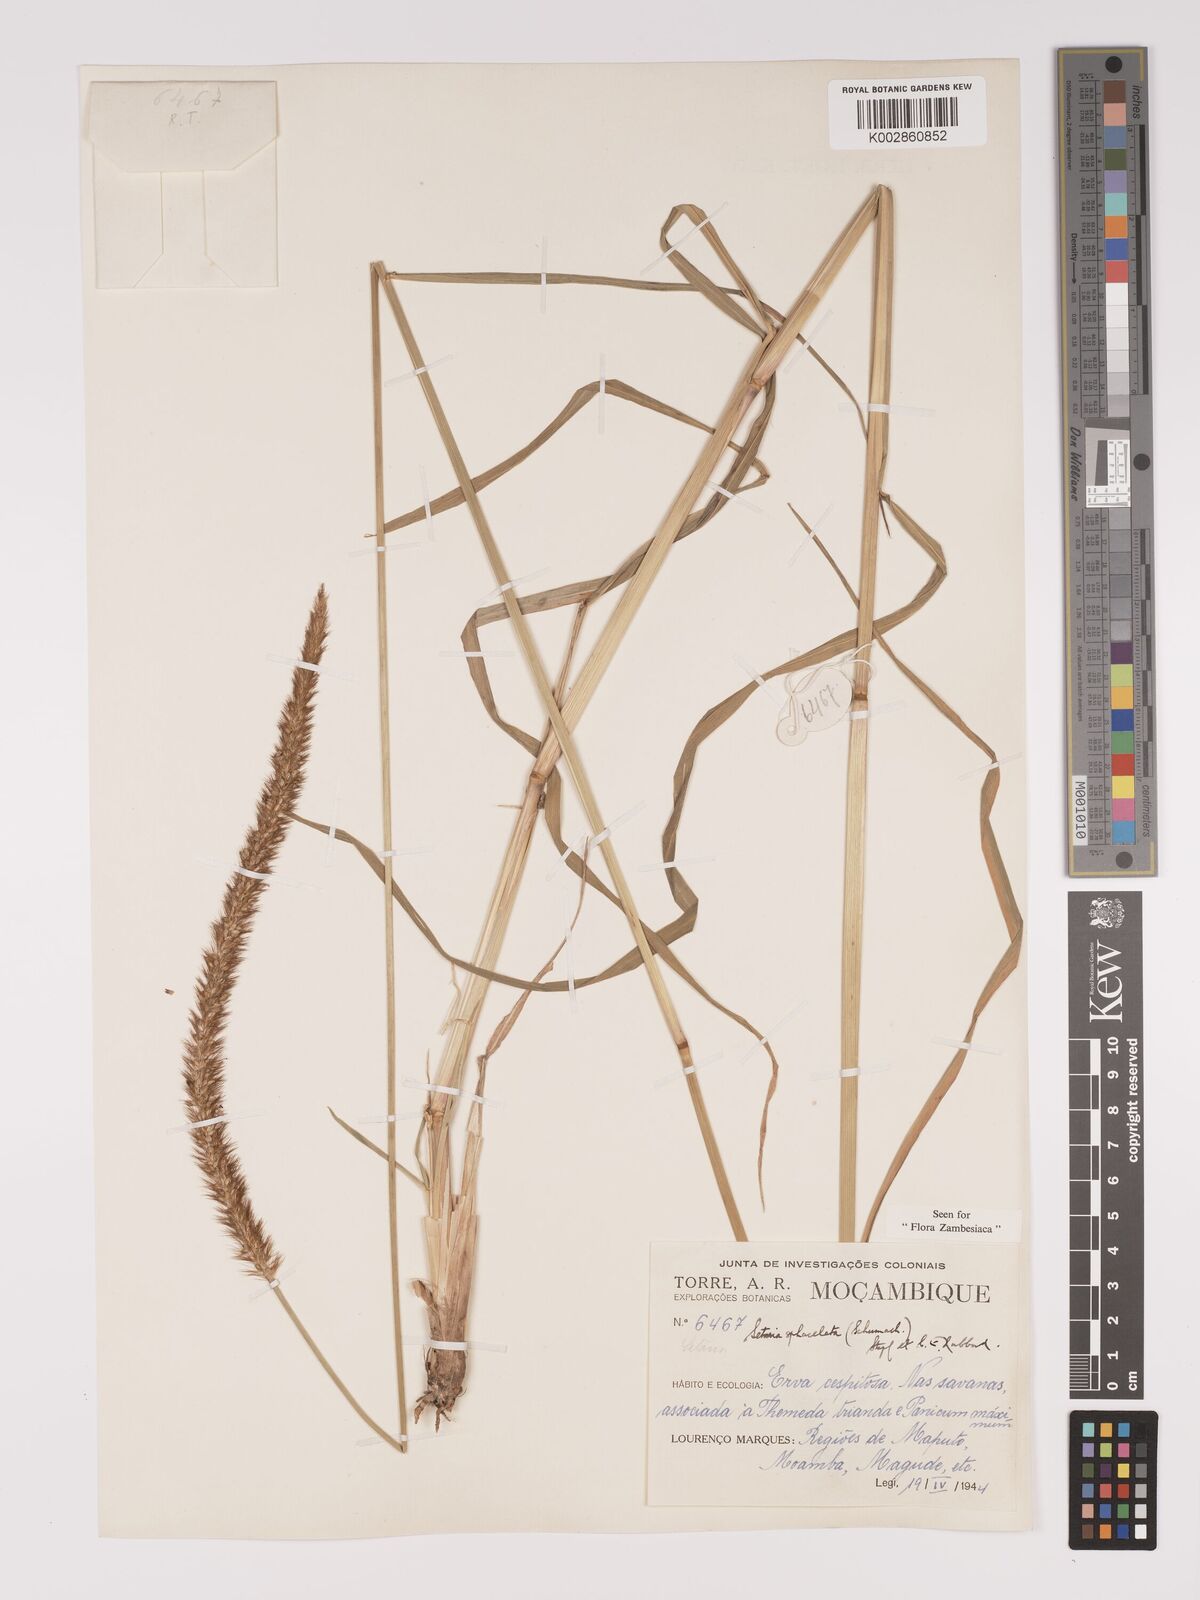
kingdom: Plantae
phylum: Tracheophyta
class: Liliopsida
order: Poales
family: Poaceae
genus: Setaria
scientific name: Setaria sphacelata
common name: African bristlegrass
